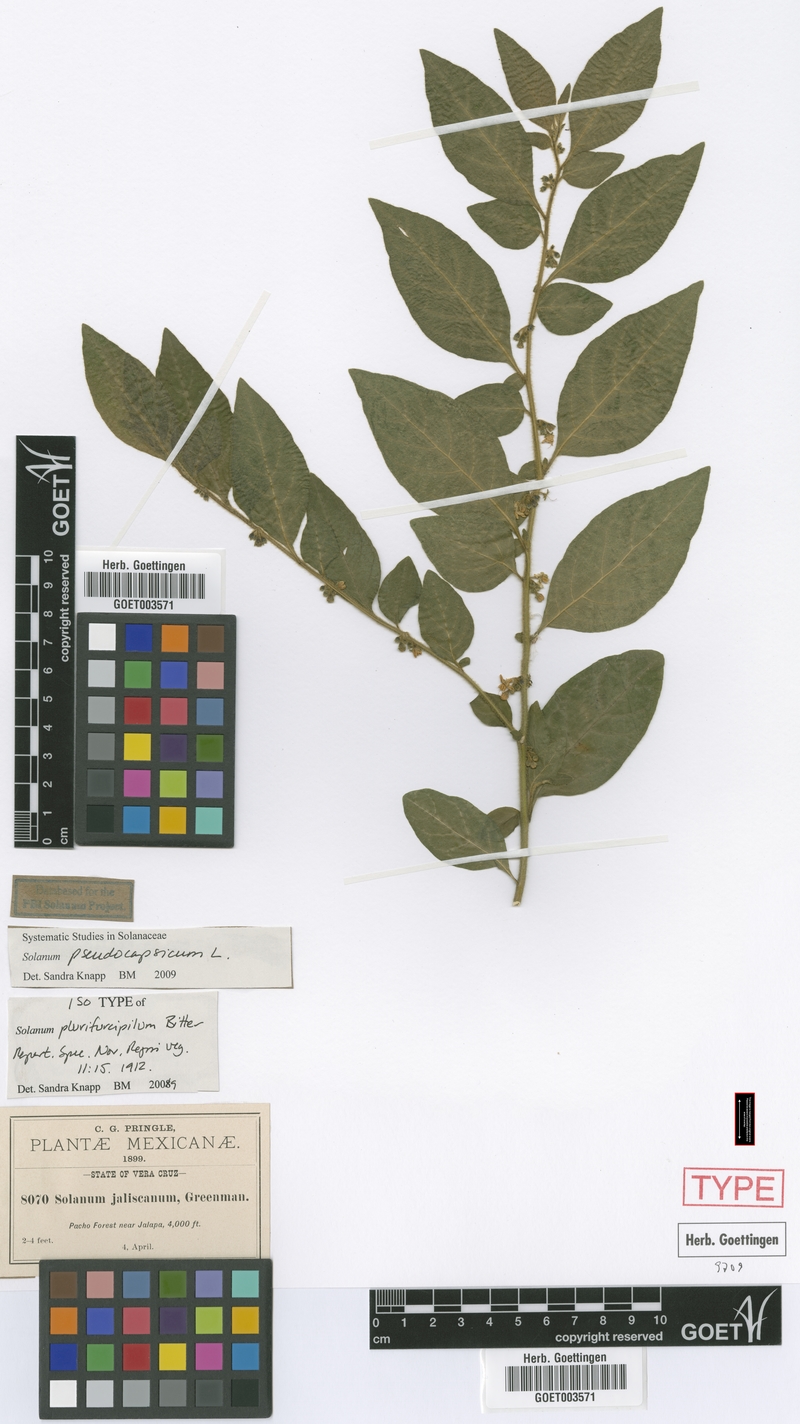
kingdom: Plantae
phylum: Tracheophyta
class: Magnoliopsida
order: Solanales
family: Solanaceae
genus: Solanum
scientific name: Solanum pseudocapsicum
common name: Jerusalem cherry
